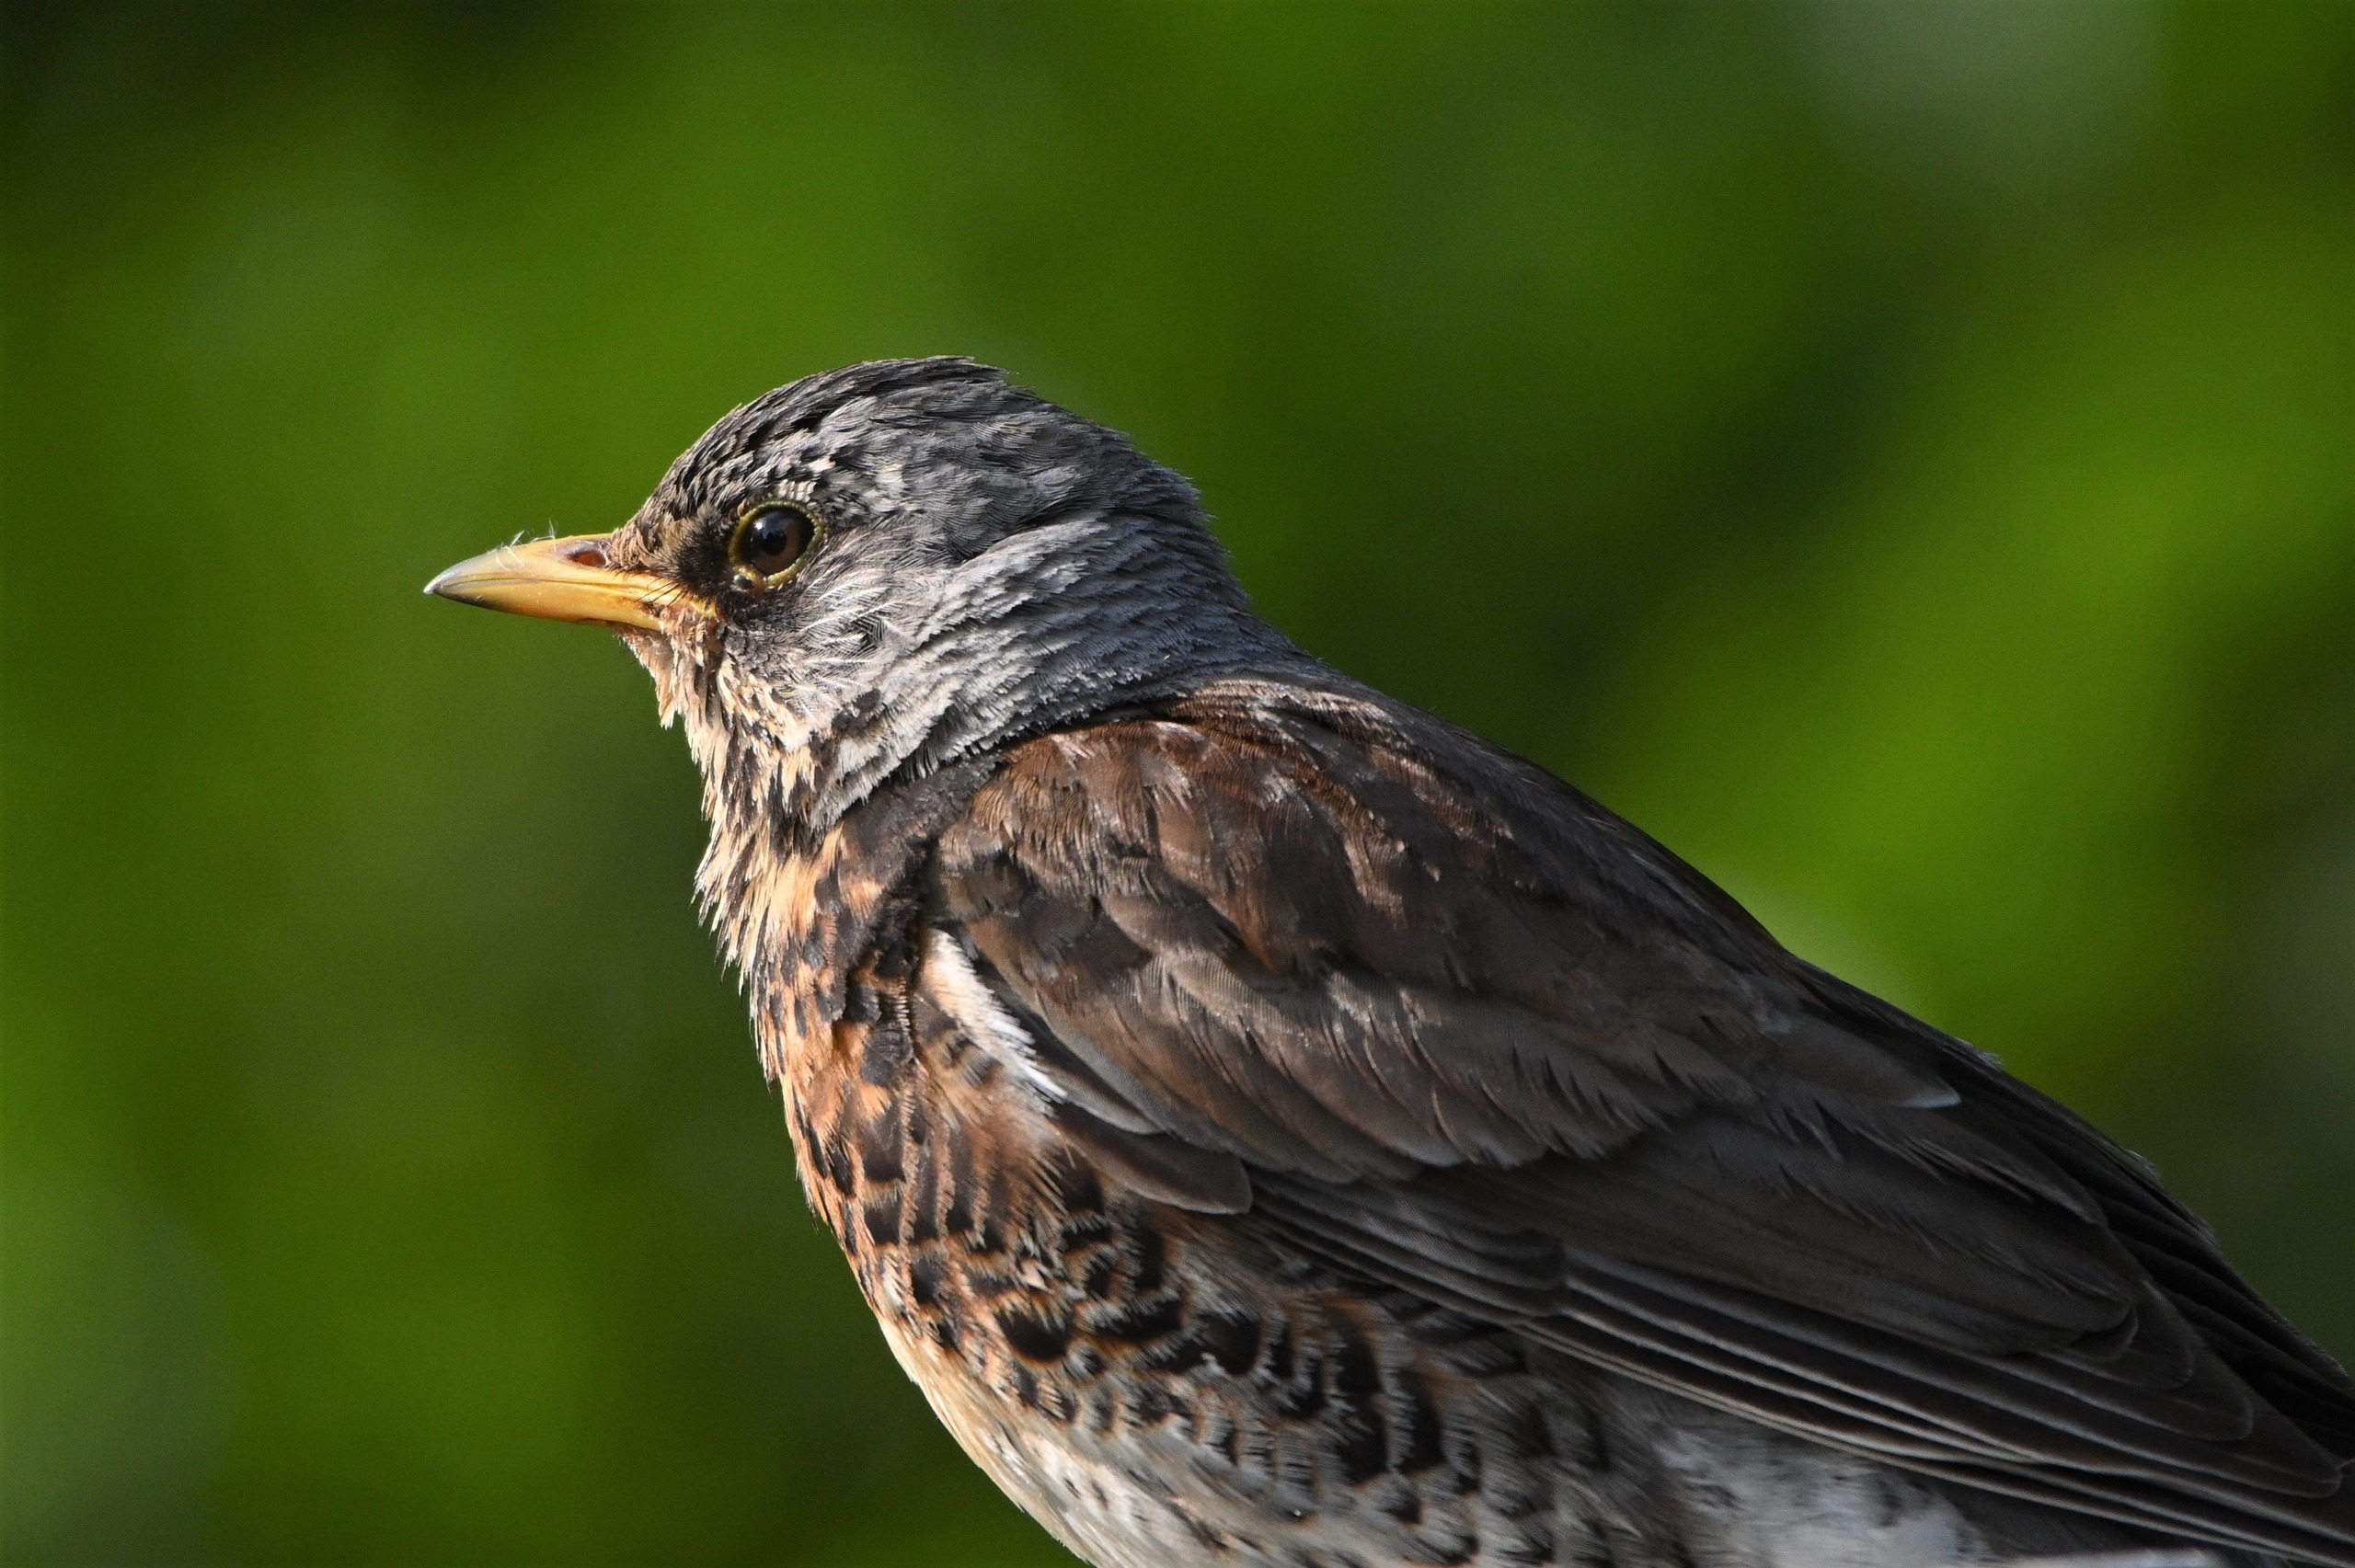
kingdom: Animalia
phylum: Chordata
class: Aves
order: Passeriformes
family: Turdidae
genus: Turdus
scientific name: Turdus pilaris
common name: Sjagger
